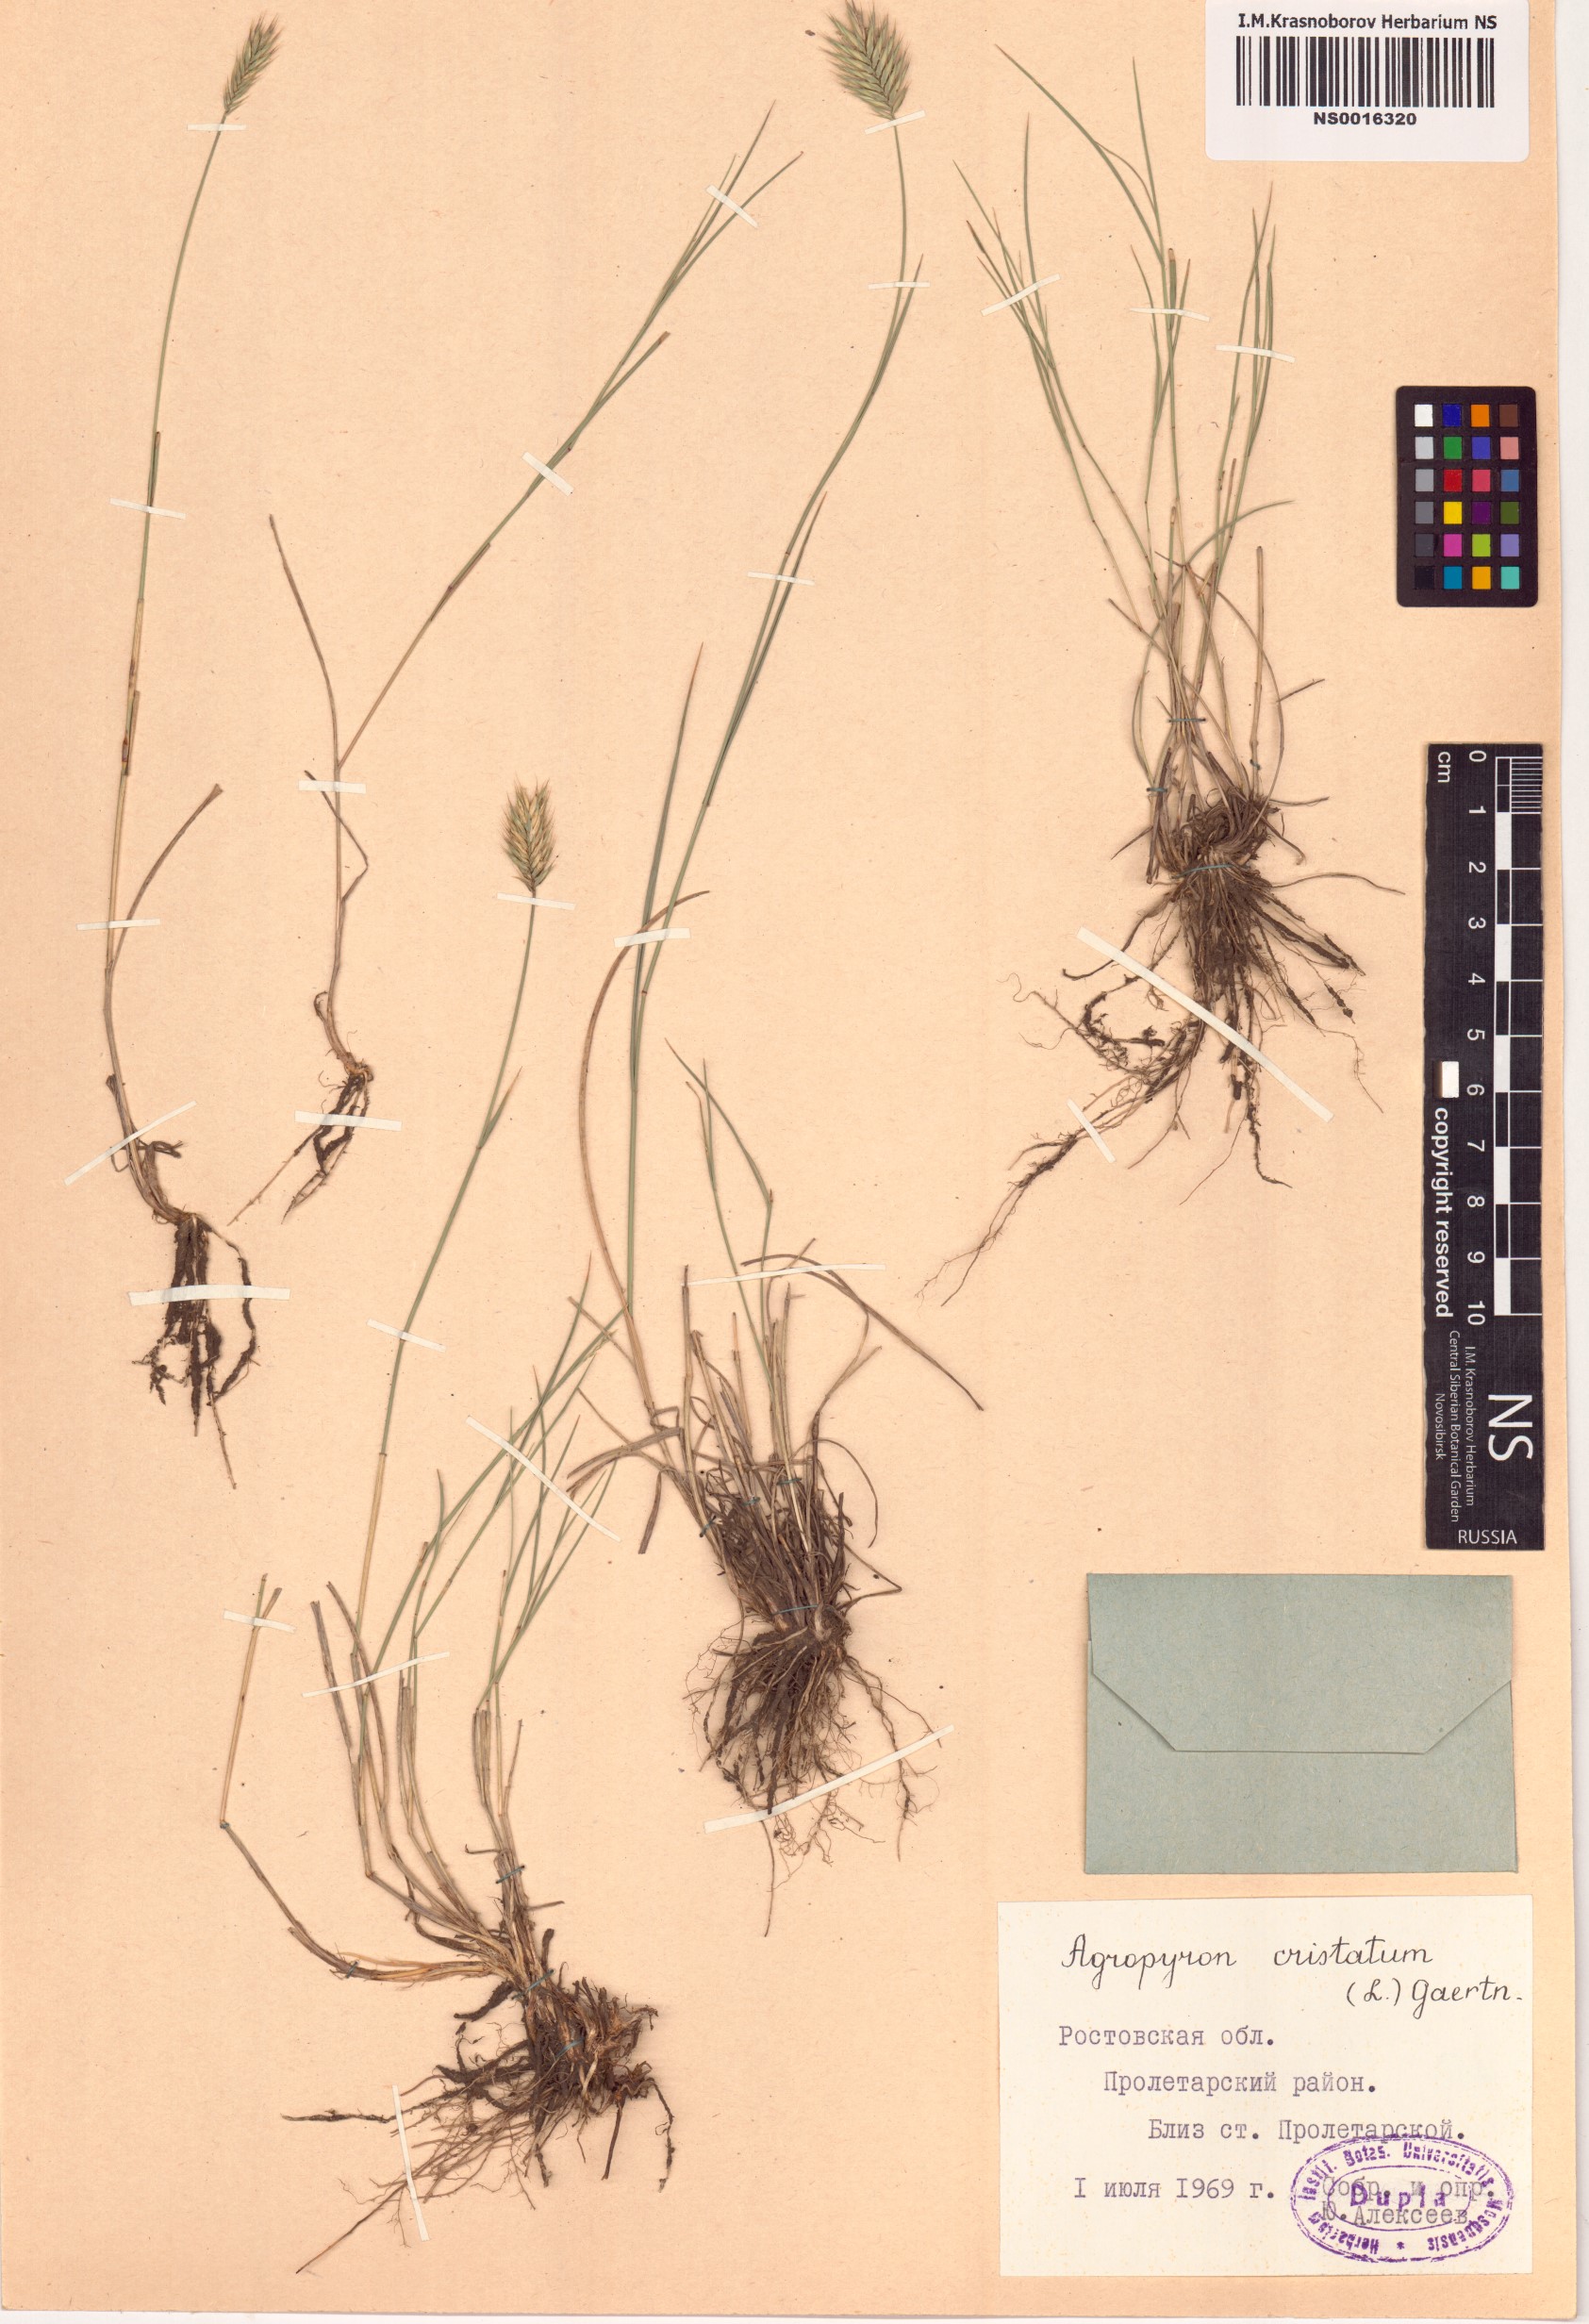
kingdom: Plantae
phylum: Tracheophyta
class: Liliopsida
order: Poales
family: Poaceae
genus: Agropyron
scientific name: Agropyron cristatum
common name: Crested wheatgrass
